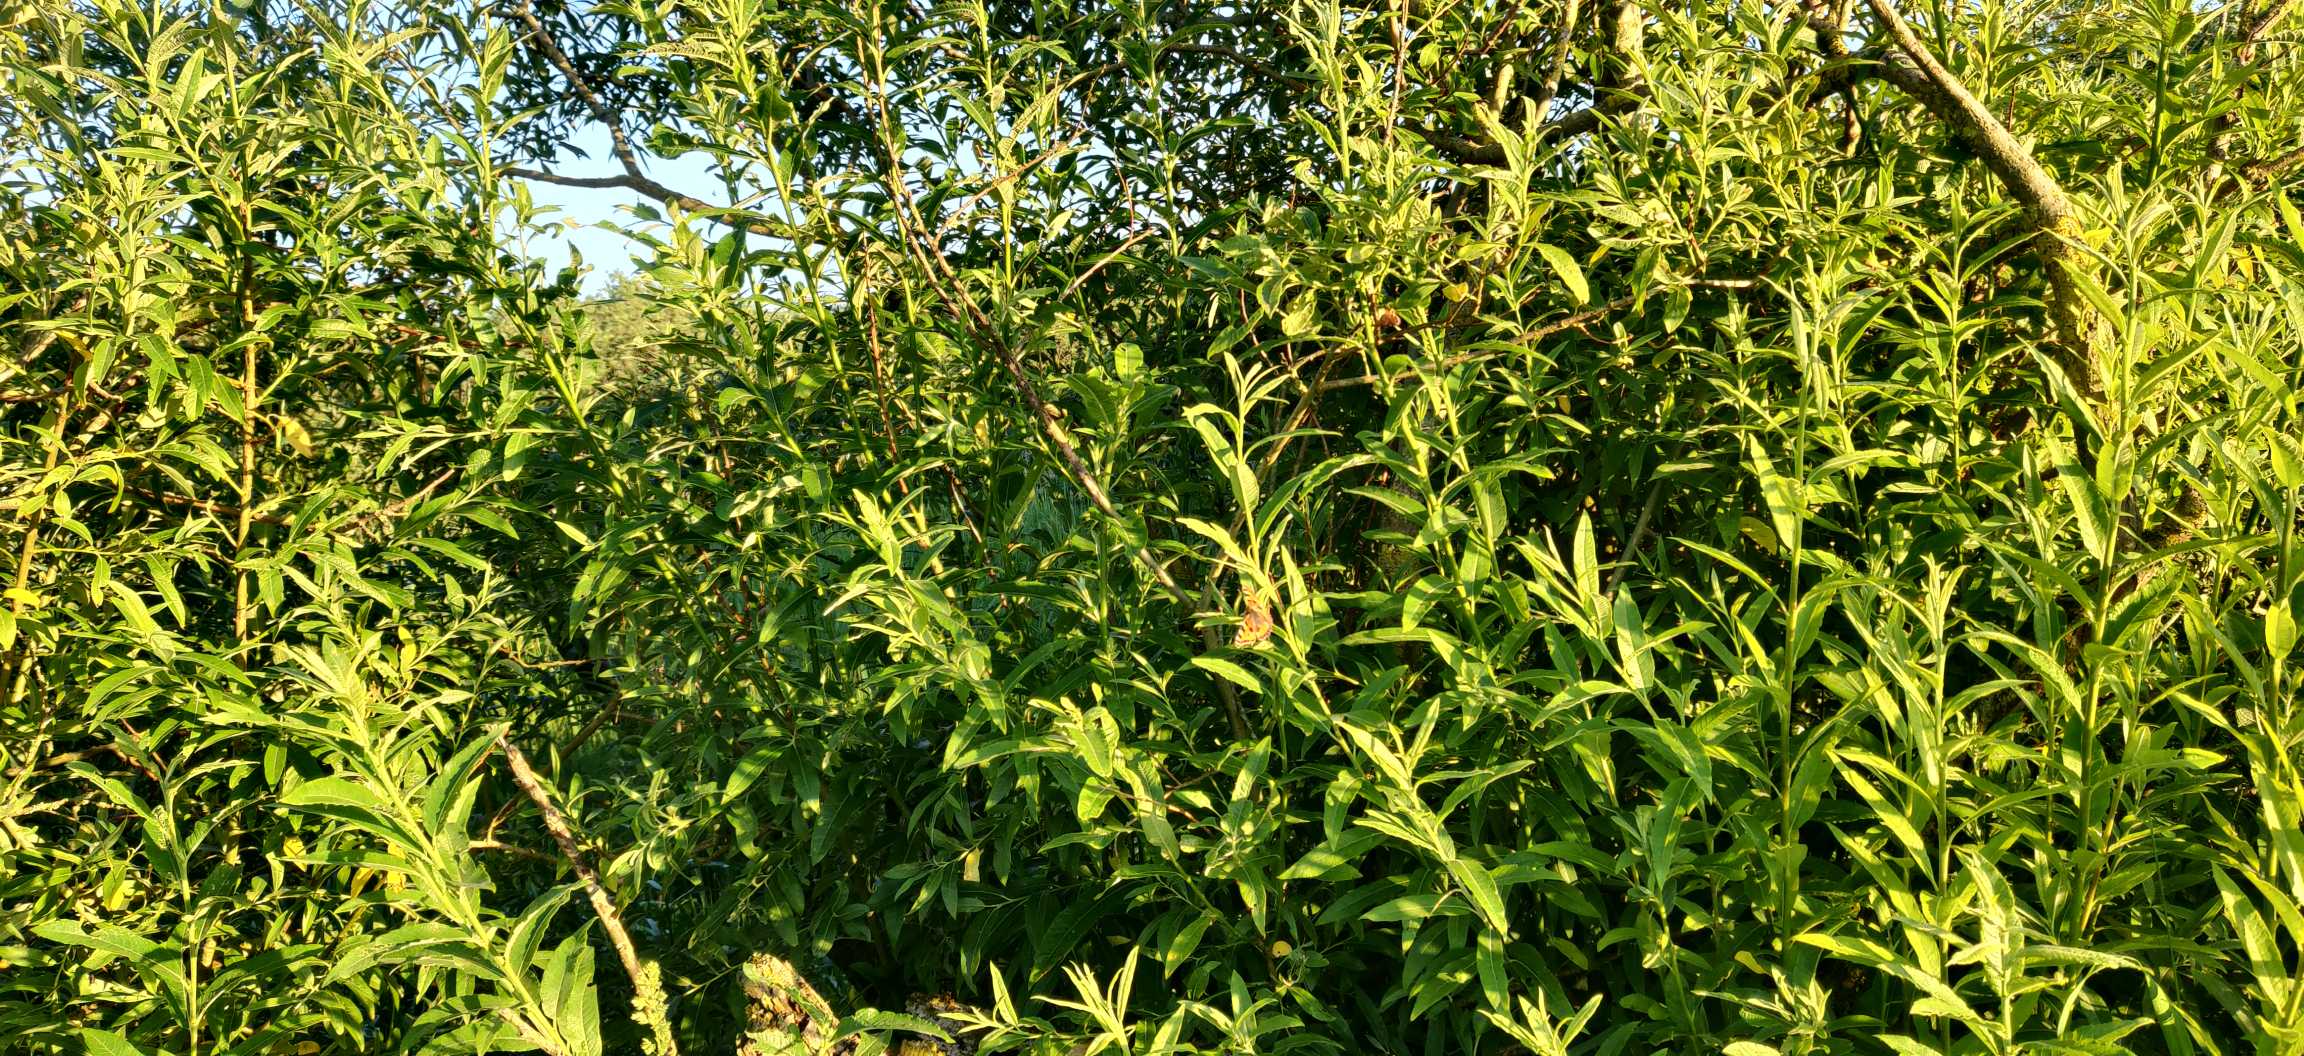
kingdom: Animalia
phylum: Arthropoda
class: Insecta
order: Lepidoptera
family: Nymphalidae
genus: Aglais
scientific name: Aglais urticae
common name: Nældens takvinge
